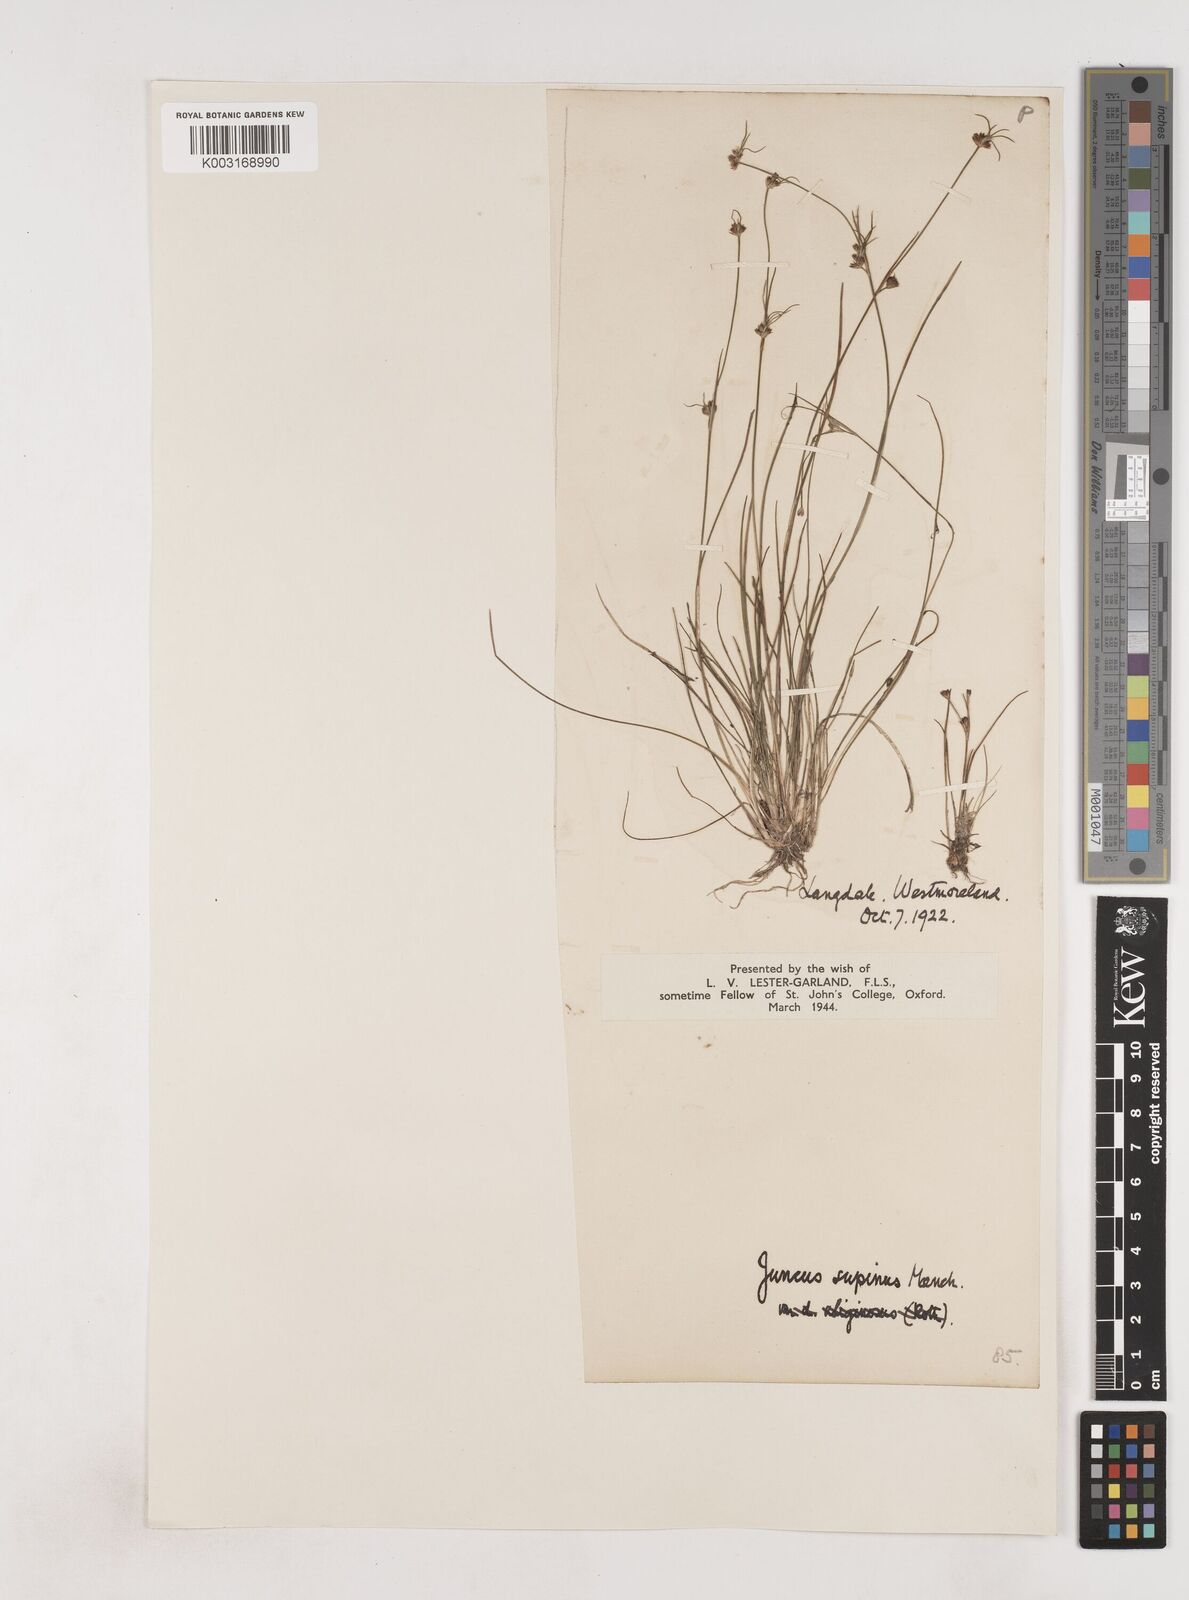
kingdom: Plantae
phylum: Tracheophyta
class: Liliopsida
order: Poales
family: Juncaceae
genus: Juncus
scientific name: Juncus bulbosus
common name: Bulbous rush
